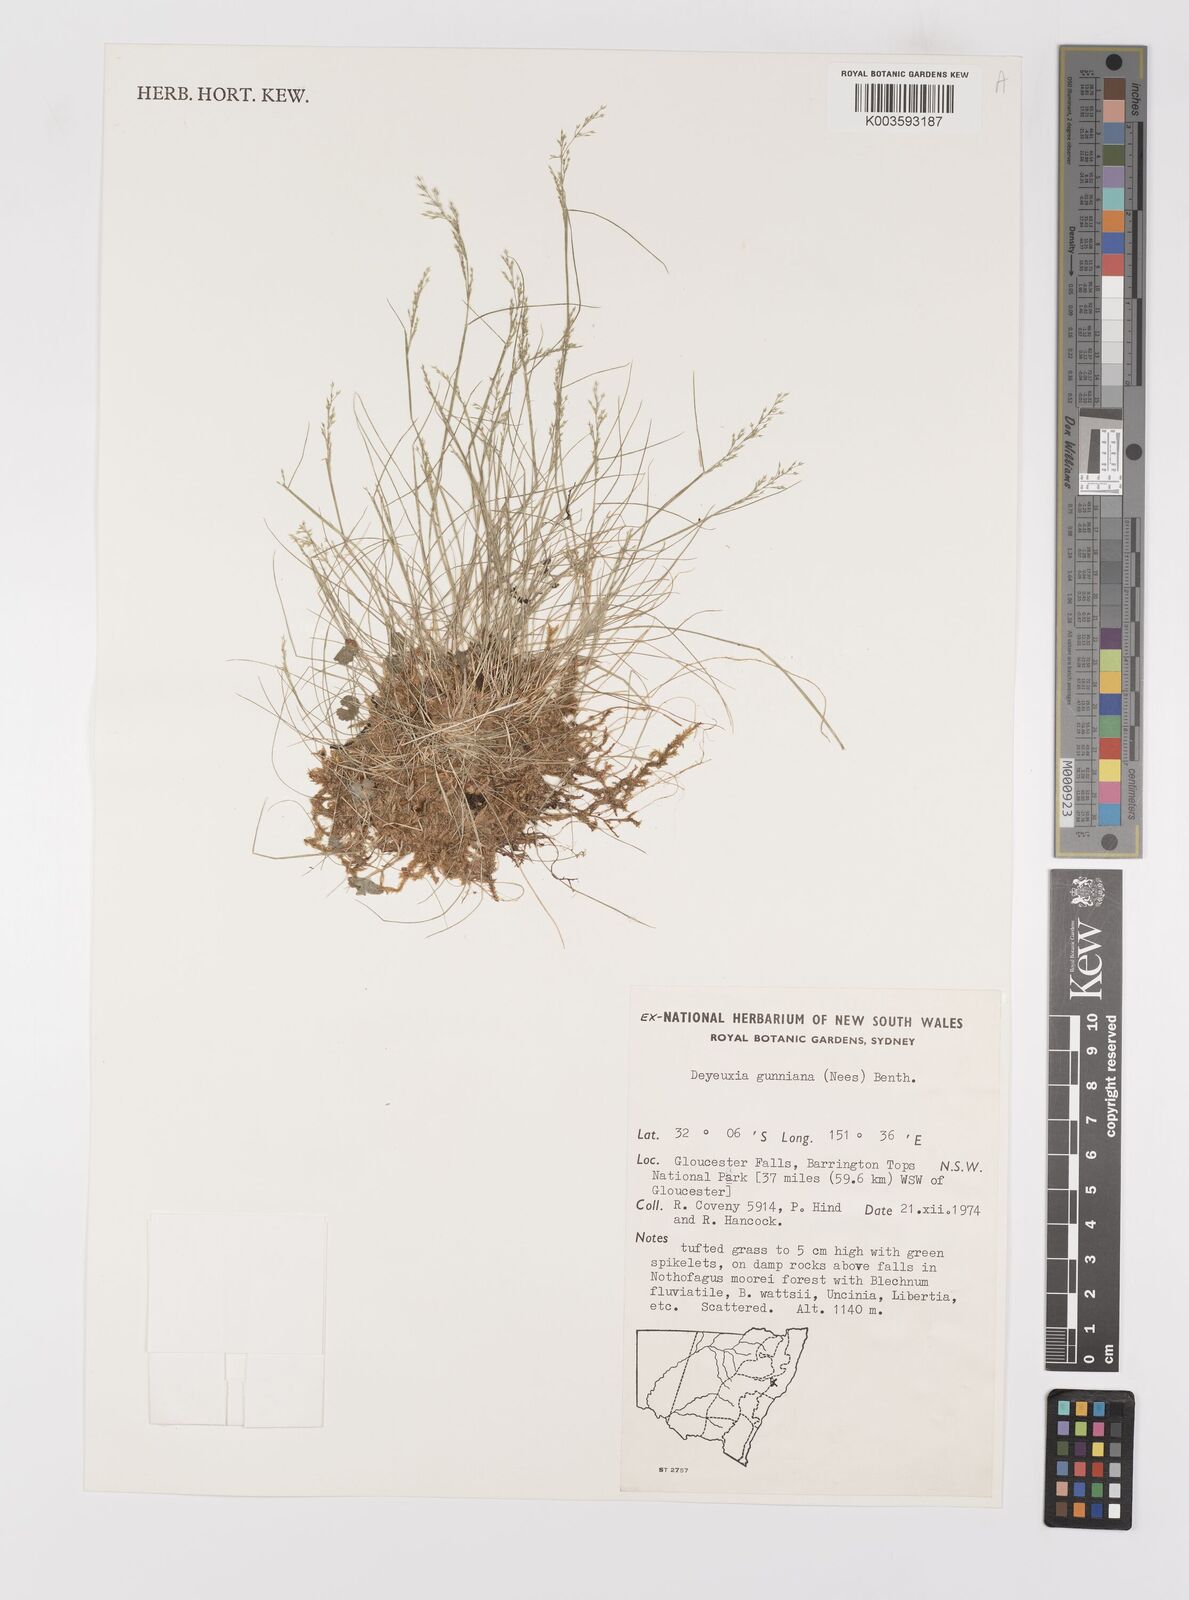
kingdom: Plantae
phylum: Tracheophyta
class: Liliopsida
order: Poales
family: Poaceae
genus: Ancistragrostis
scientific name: Ancistragrostis
